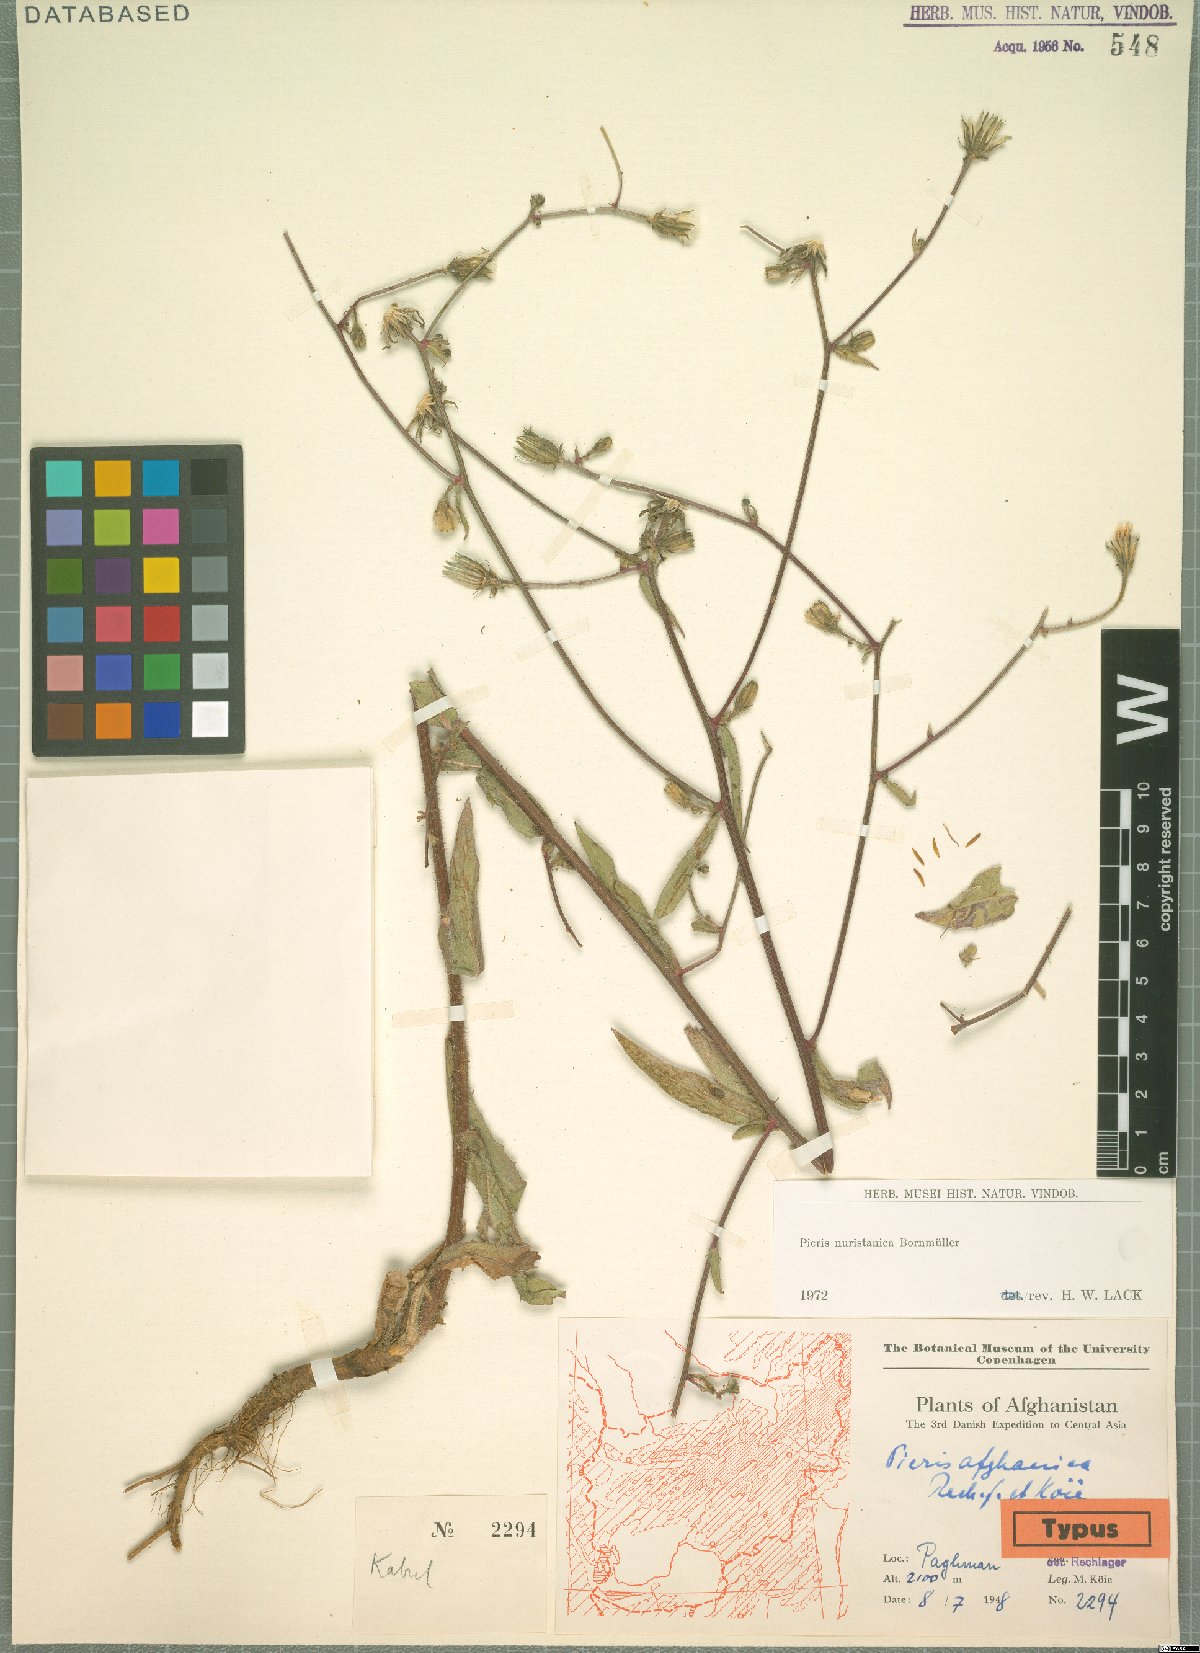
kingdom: Plantae
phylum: Tracheophyta
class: Magnoliopsida
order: Asterales
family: Asteraceae
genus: Picris
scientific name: Picris nuristanica
